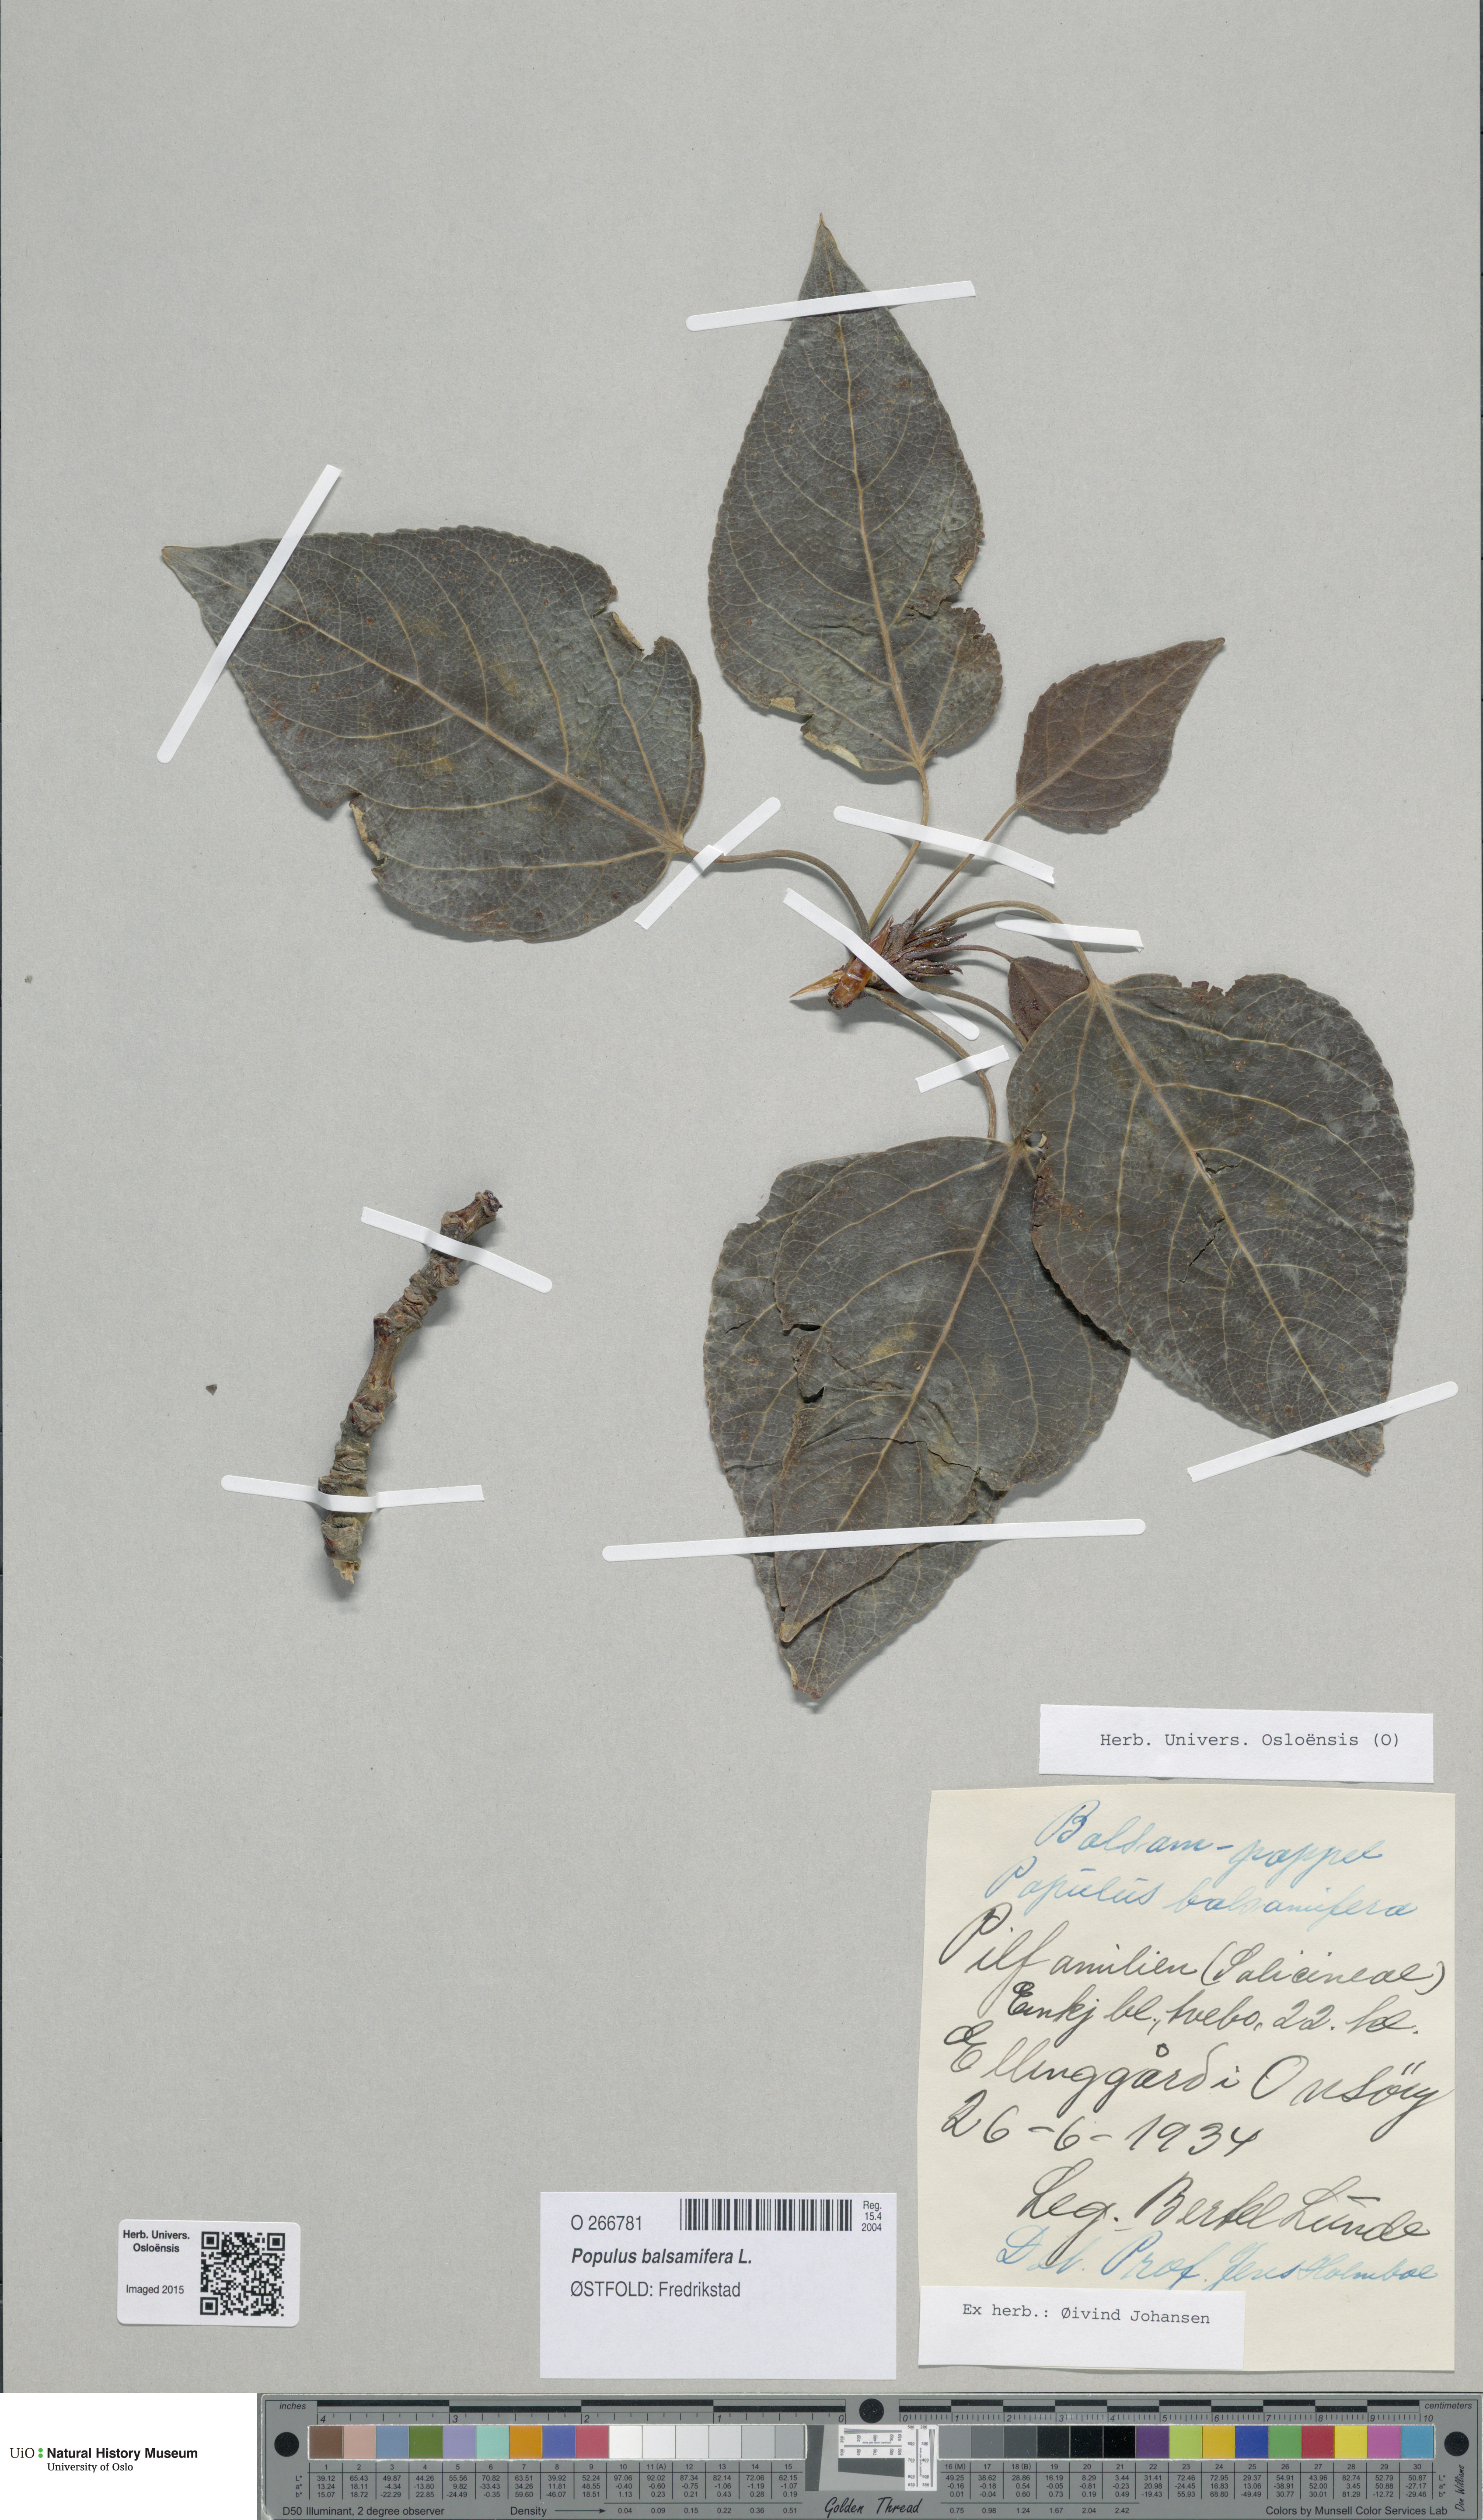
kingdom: Plantae
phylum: Tracheophyta
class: Magnoliopsida
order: Malpighiales
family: Salicaceae
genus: Populus
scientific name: Populus balsamifera
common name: Balsam poplar
